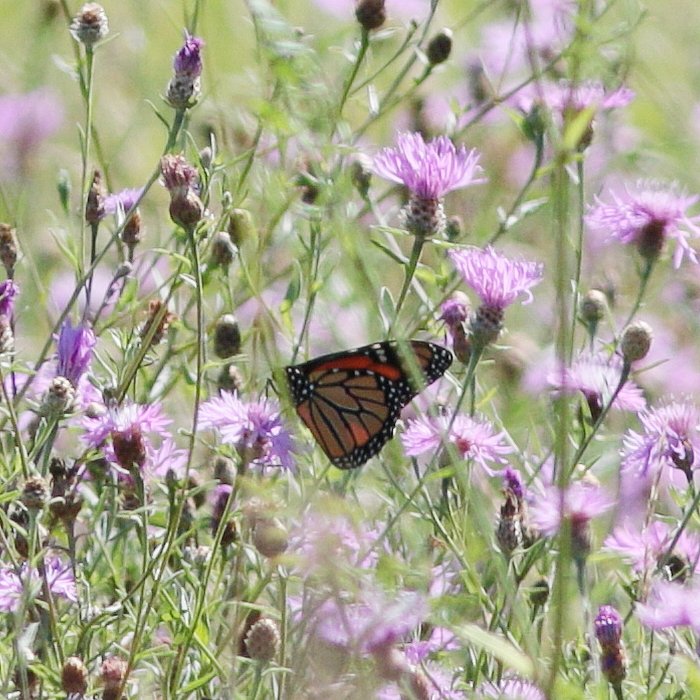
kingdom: Animalia
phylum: Arthropoda
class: Insecta
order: Lepidoptera
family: Nymphalidae
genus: Danaus
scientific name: Danaus plexippus
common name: Monarch
